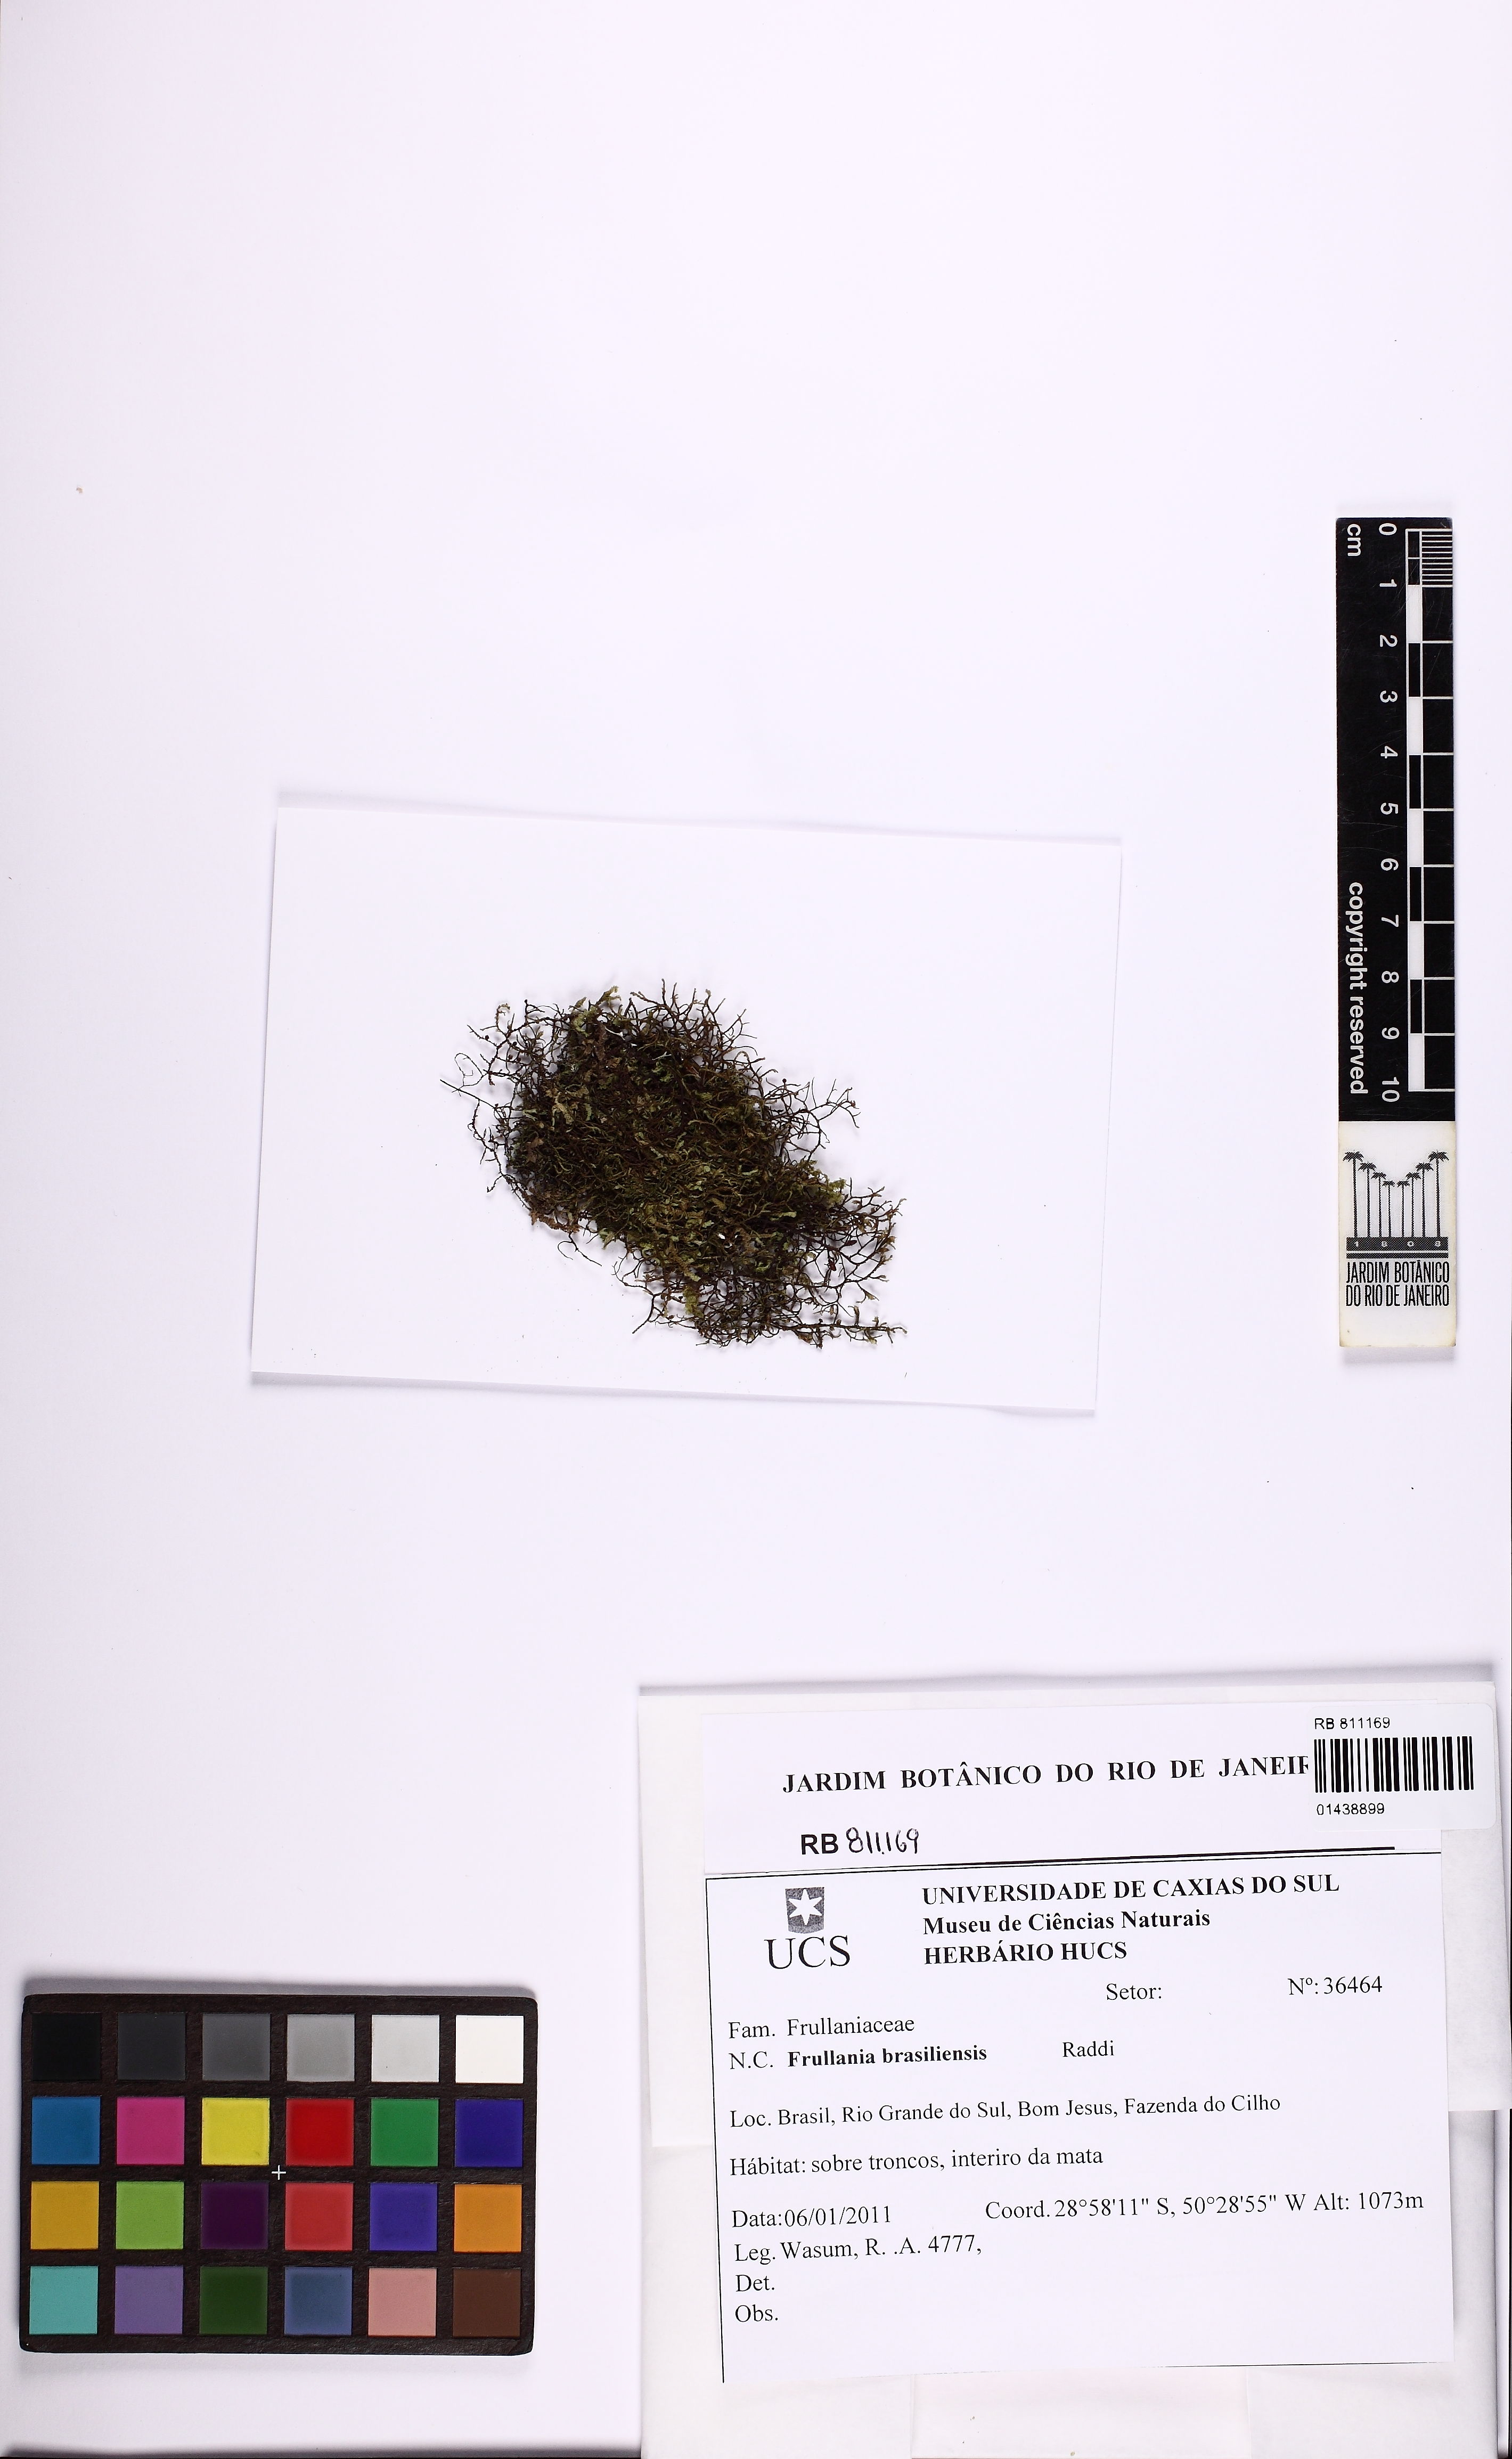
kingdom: Plantae
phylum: Marchantiophyta
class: Jungermanniopsida
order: Porellales
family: Frullaniaceae
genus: Frullania
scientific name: Frullania brasiliensis
